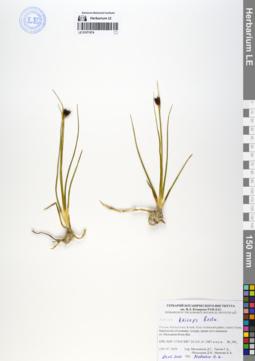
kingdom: Plantae
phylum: Tracheophyta
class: Liliopsida
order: Poales
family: Juncaceae
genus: Juncus
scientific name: Juncus castaneus
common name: Chestnut rush
